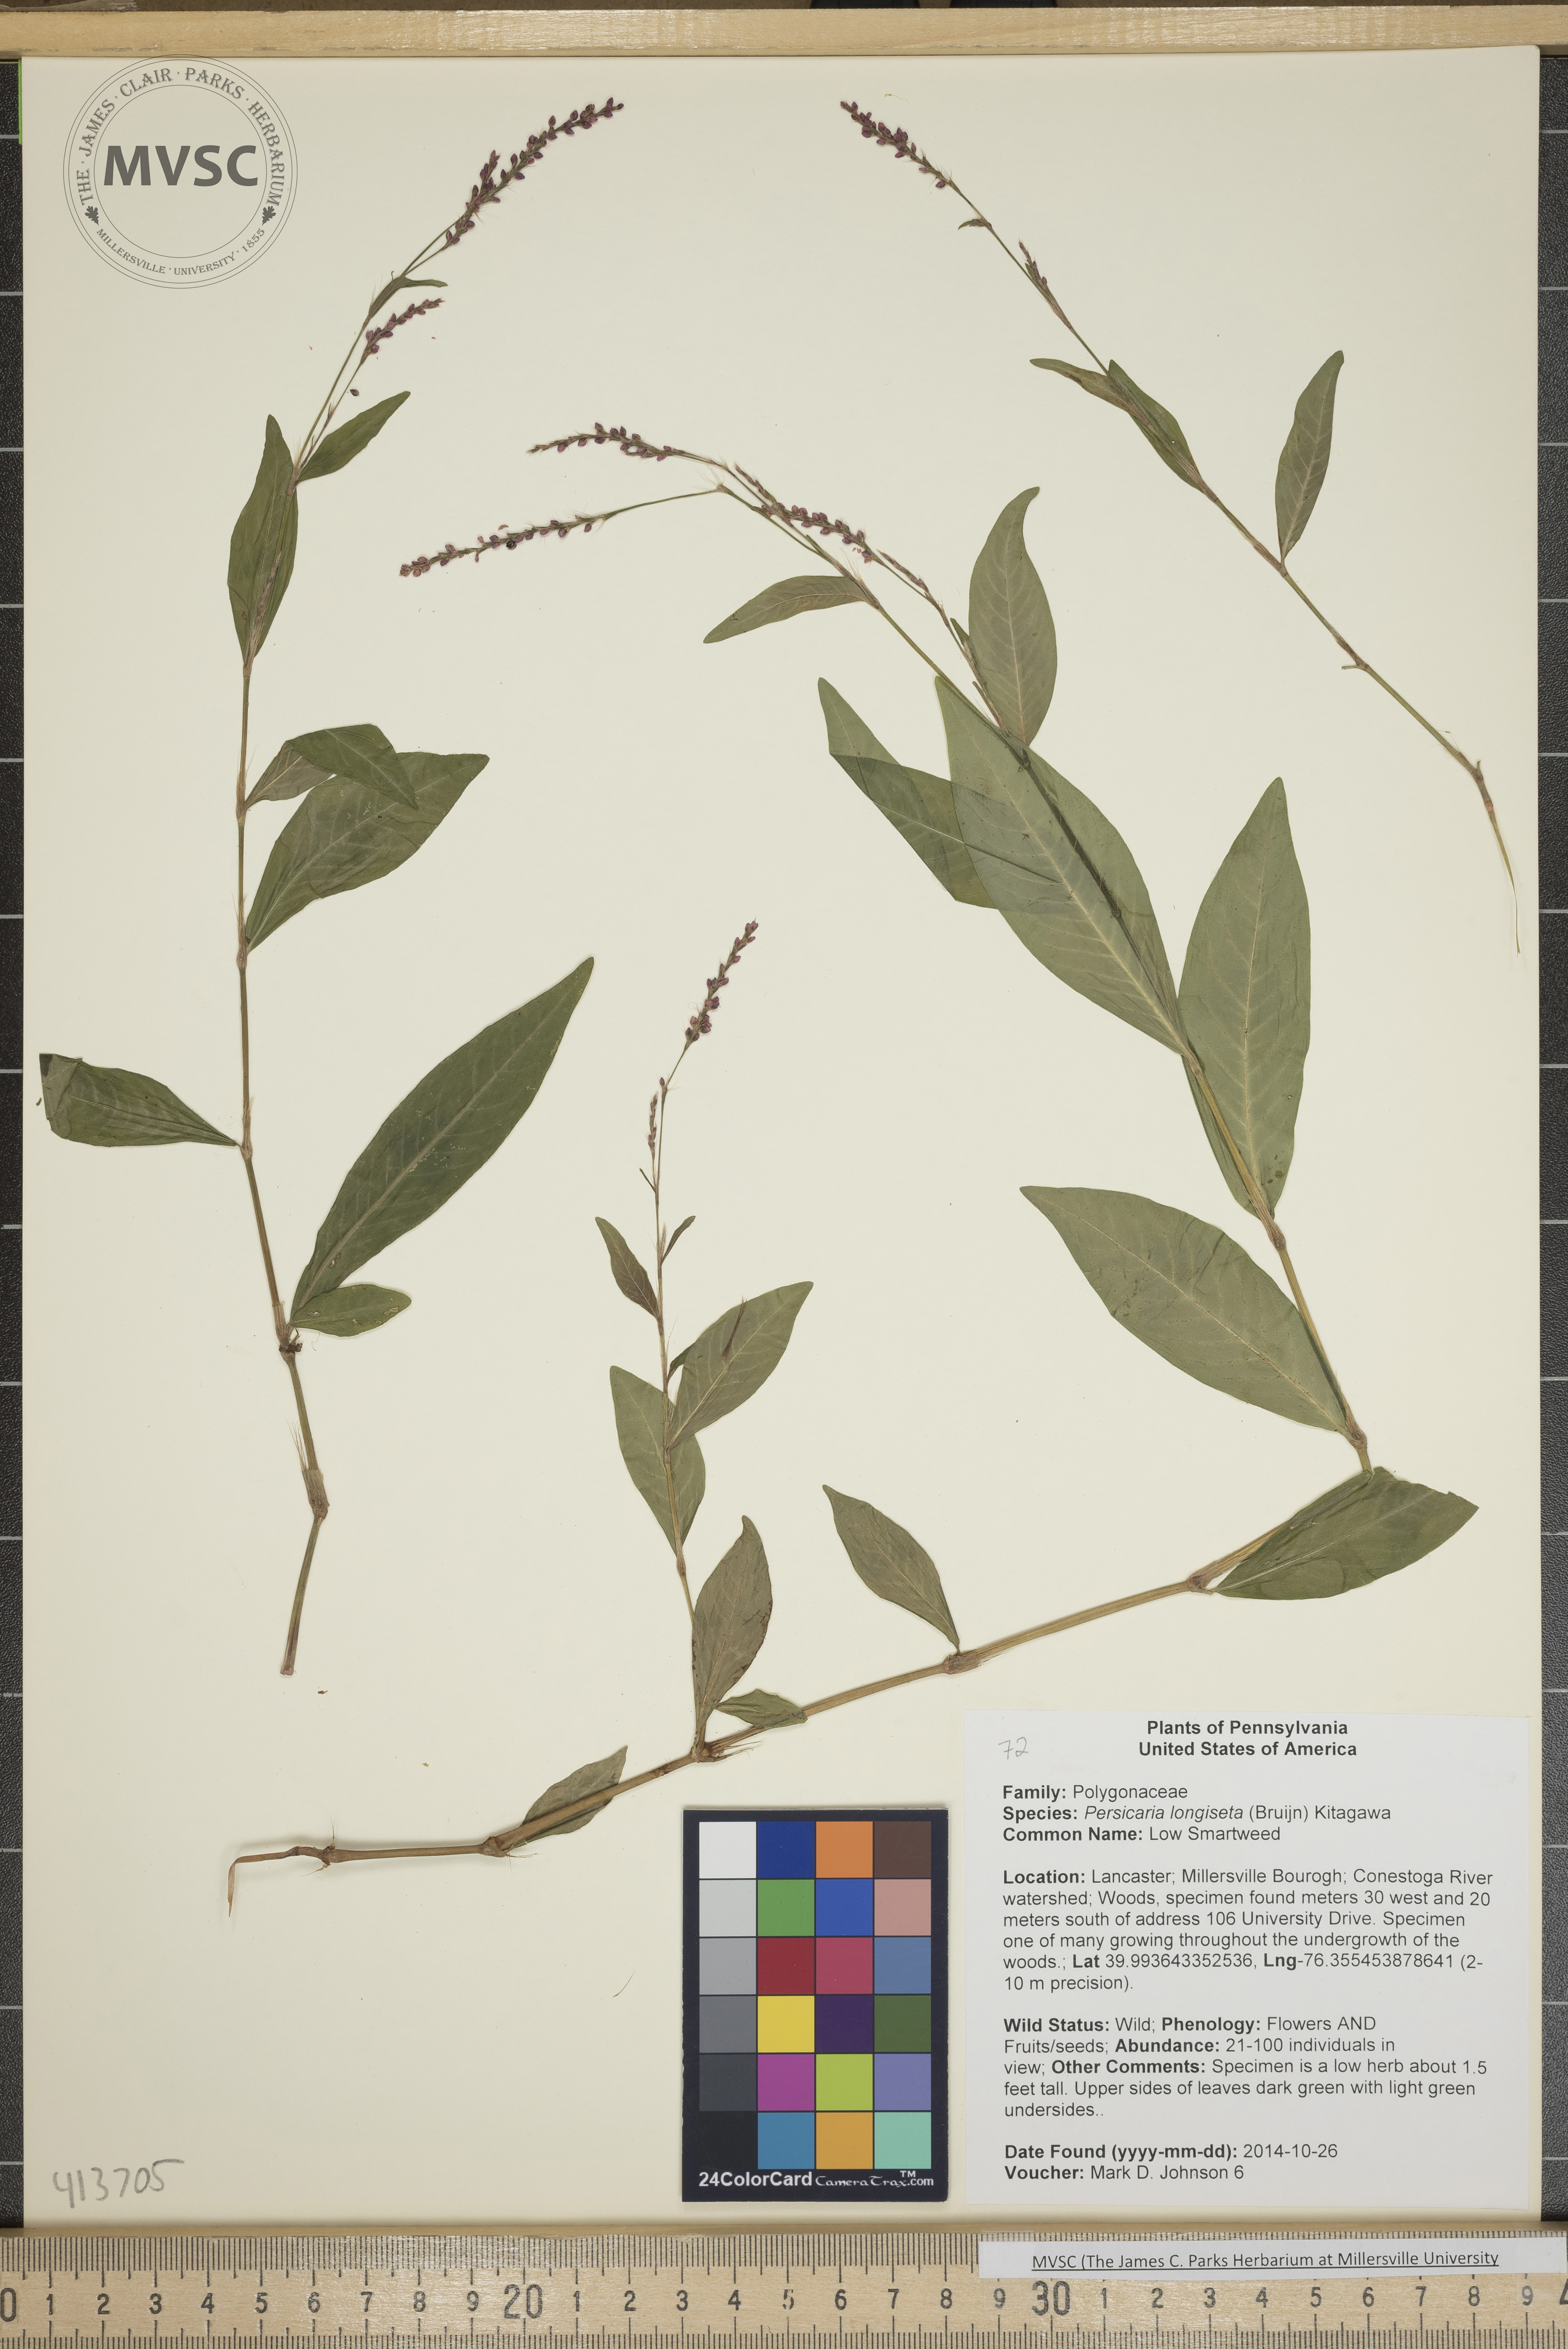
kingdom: Plantae
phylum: Tracheophyta
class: Magnoliopsida
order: Caryophyllales
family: Polygonaceae
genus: Persicaria
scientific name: Persicaria longiseta
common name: Low Smartweed
